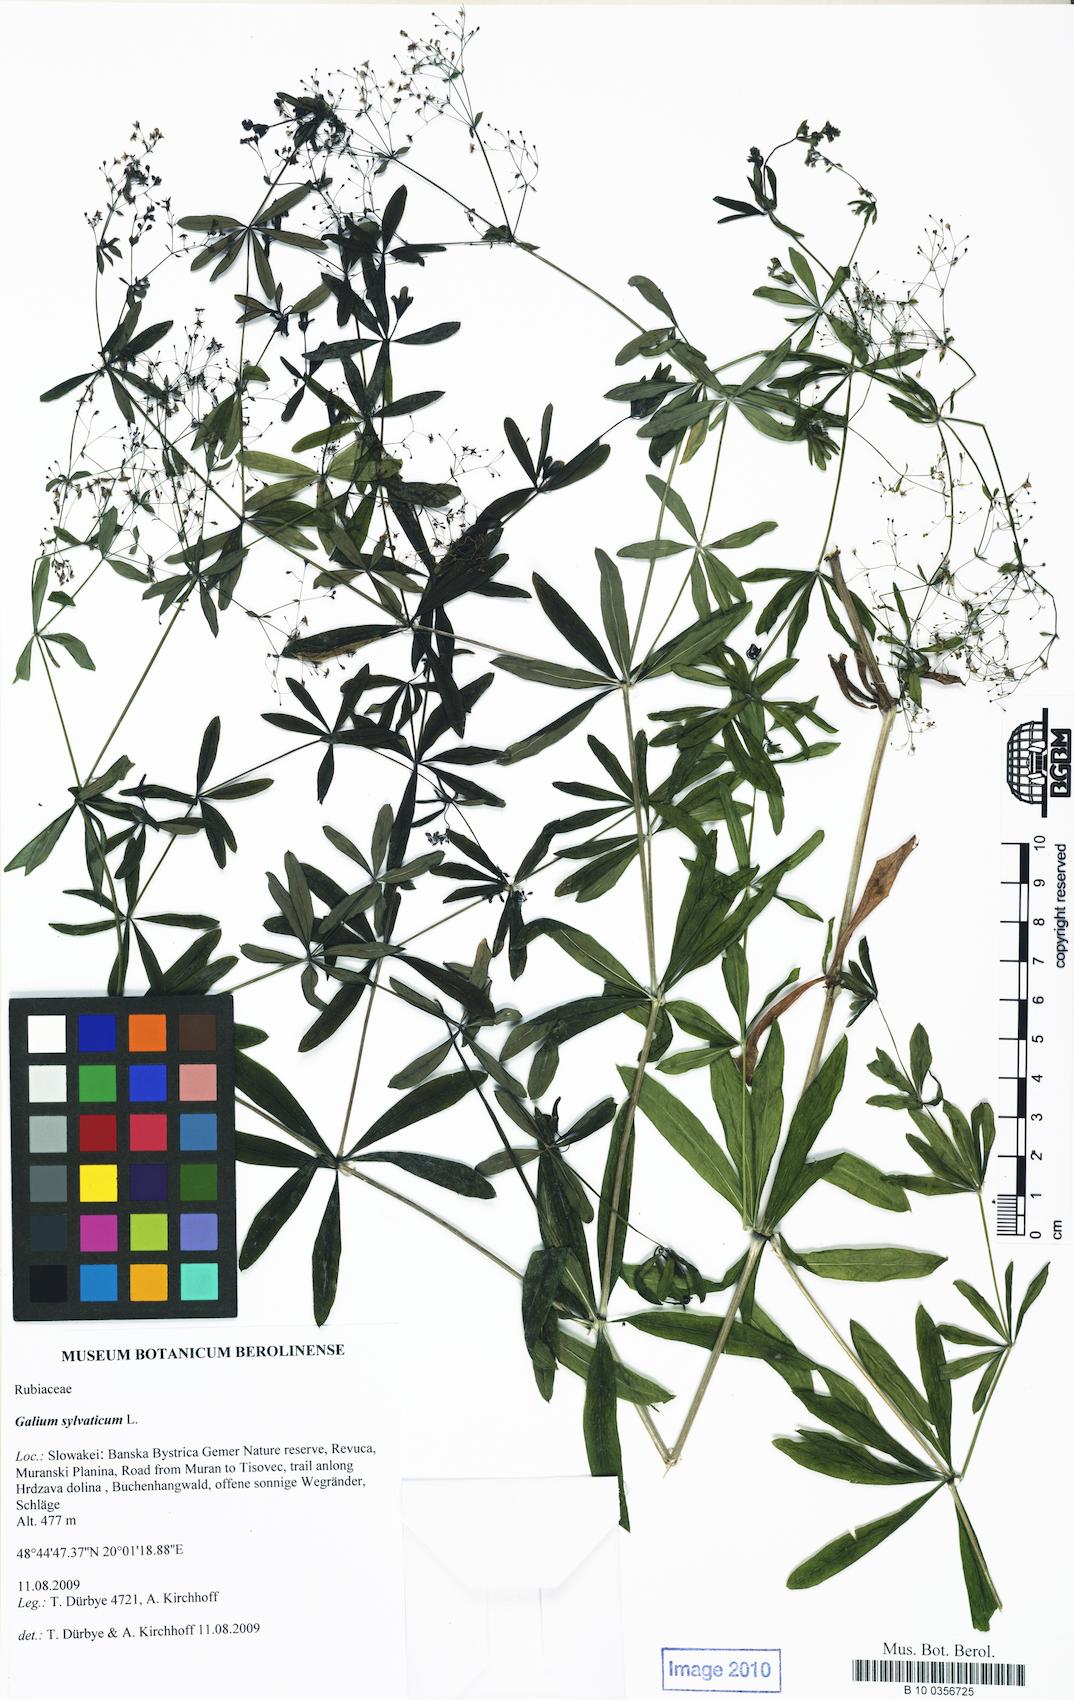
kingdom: Plantae
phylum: Tracheophyta
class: Magnoliopsida
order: Gentianales
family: Rubiaceae
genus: Galium
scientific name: Galium sylvaticum
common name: Wood bedstraw
